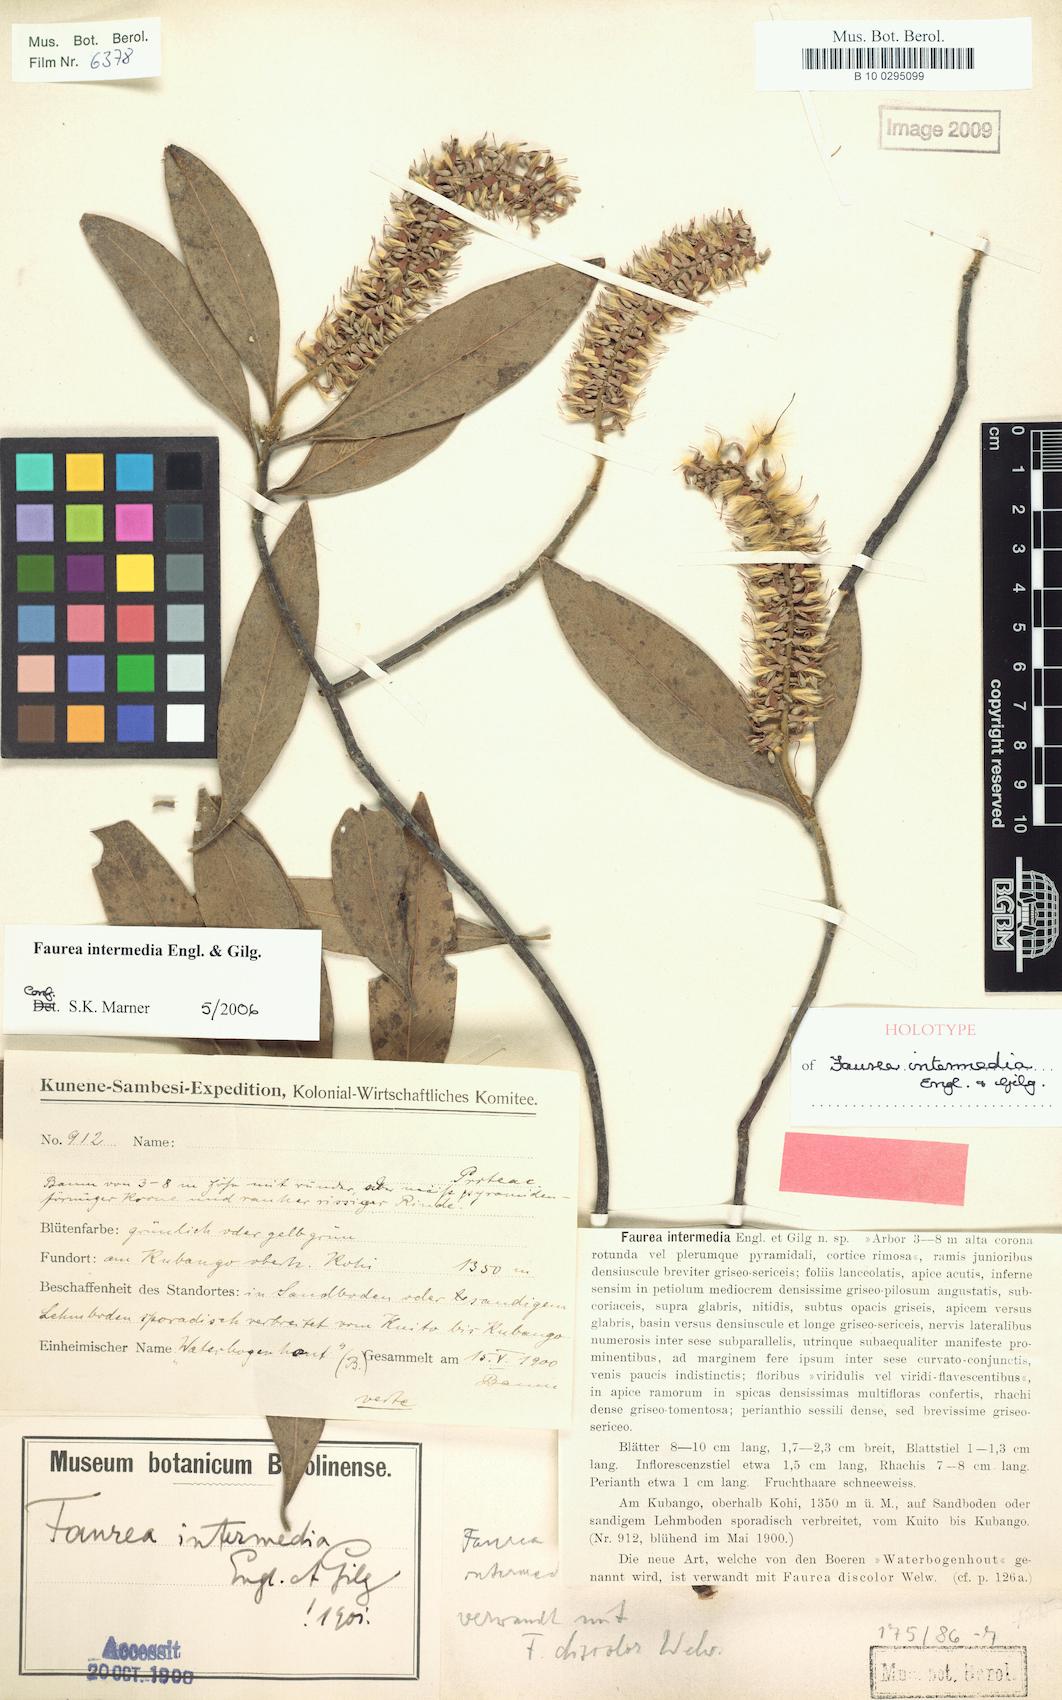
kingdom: Plantae
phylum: Tracheophyta
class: Magnoliopsida
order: Proteales
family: Proteaceae
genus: Faurea
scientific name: Faurea intermedia
